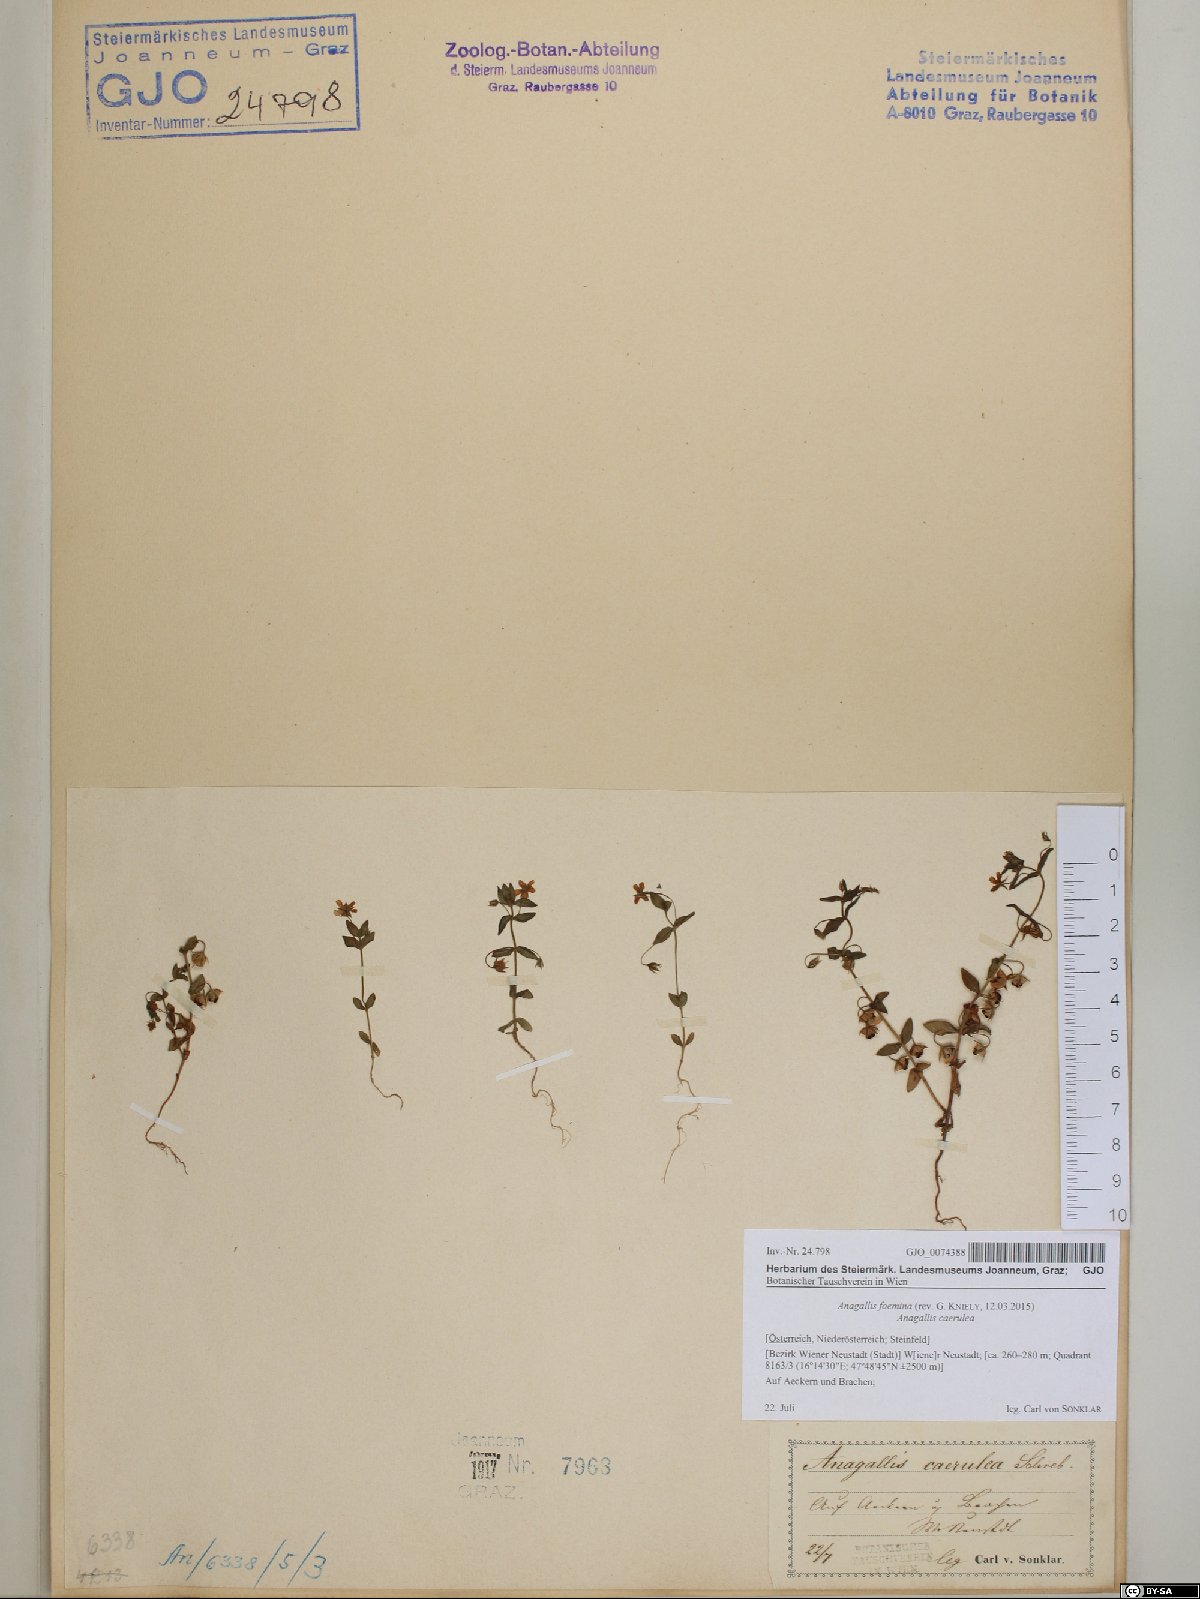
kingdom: Plantae
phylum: Tracheophyta
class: Magnoliopsida
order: Ericales
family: Primulaceae
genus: Lysimachia
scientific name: Lysimachia foemina
